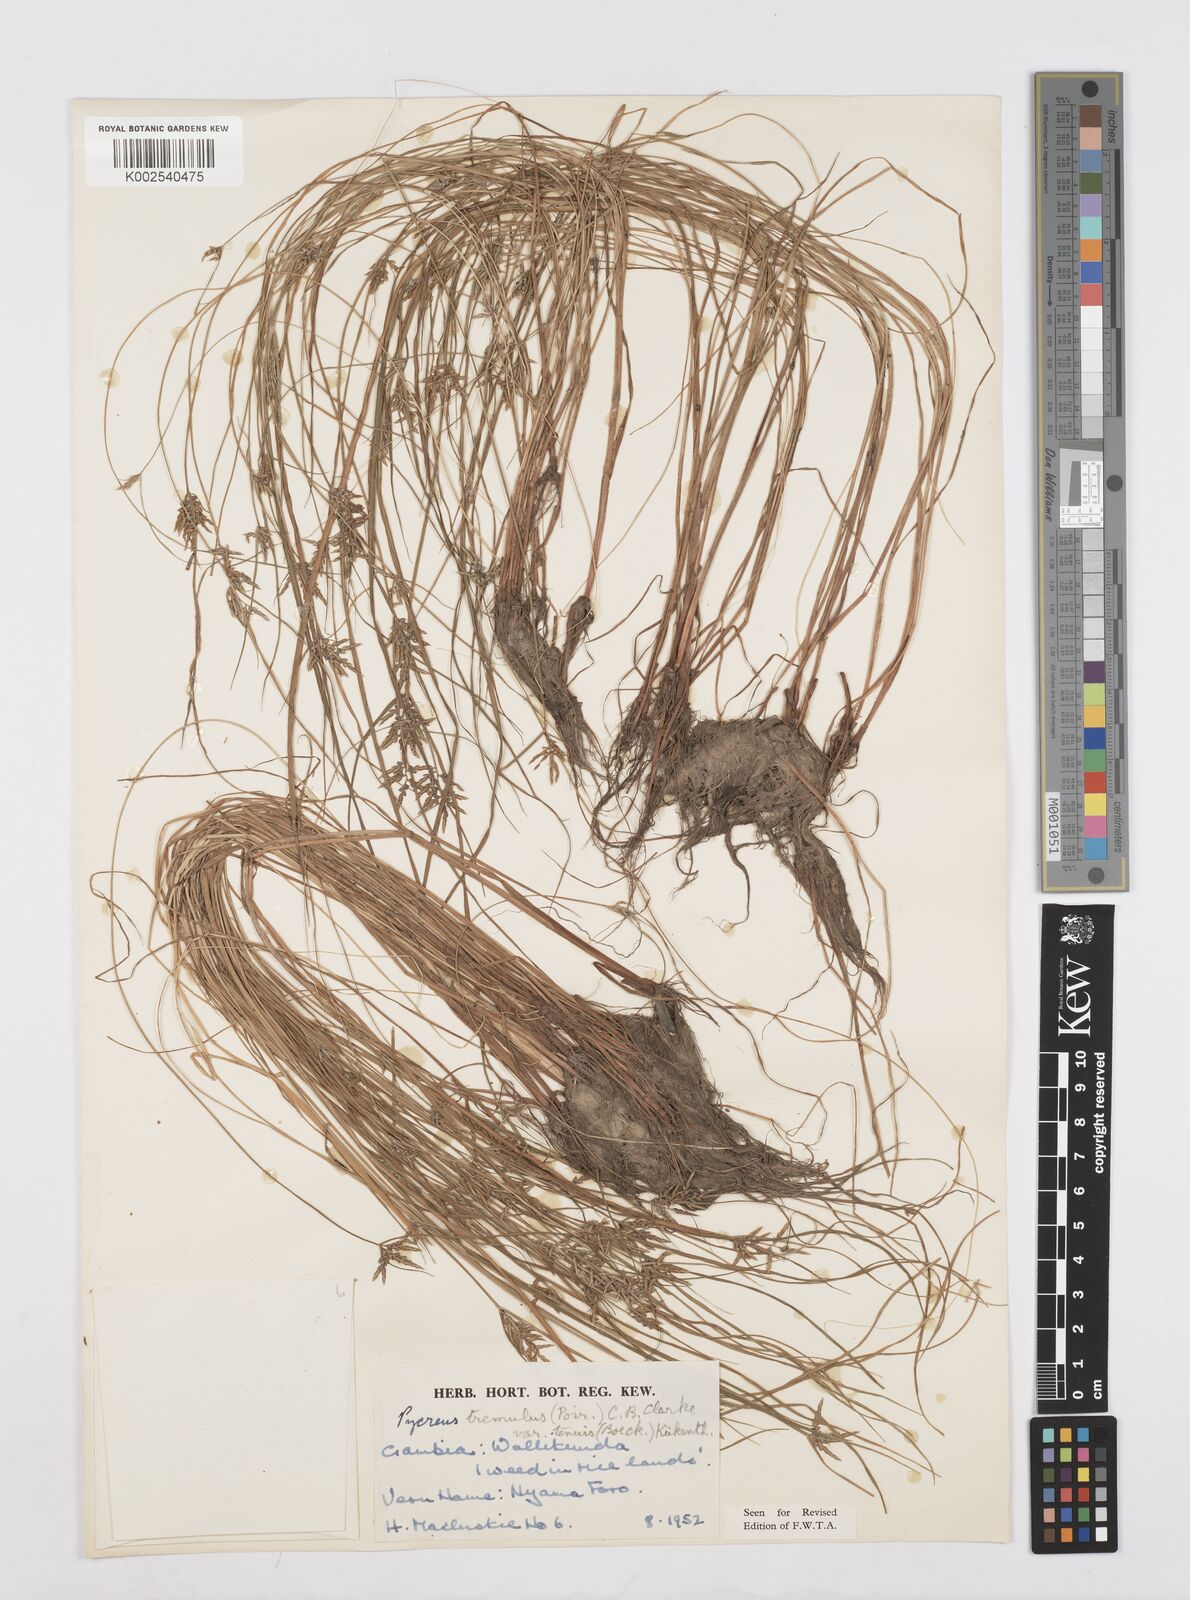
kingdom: Plantae
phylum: Tracheophyta
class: Liliopsida
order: Poales
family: Cyperaceae
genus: Cyperus
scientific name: Cyperus macrostachyos
